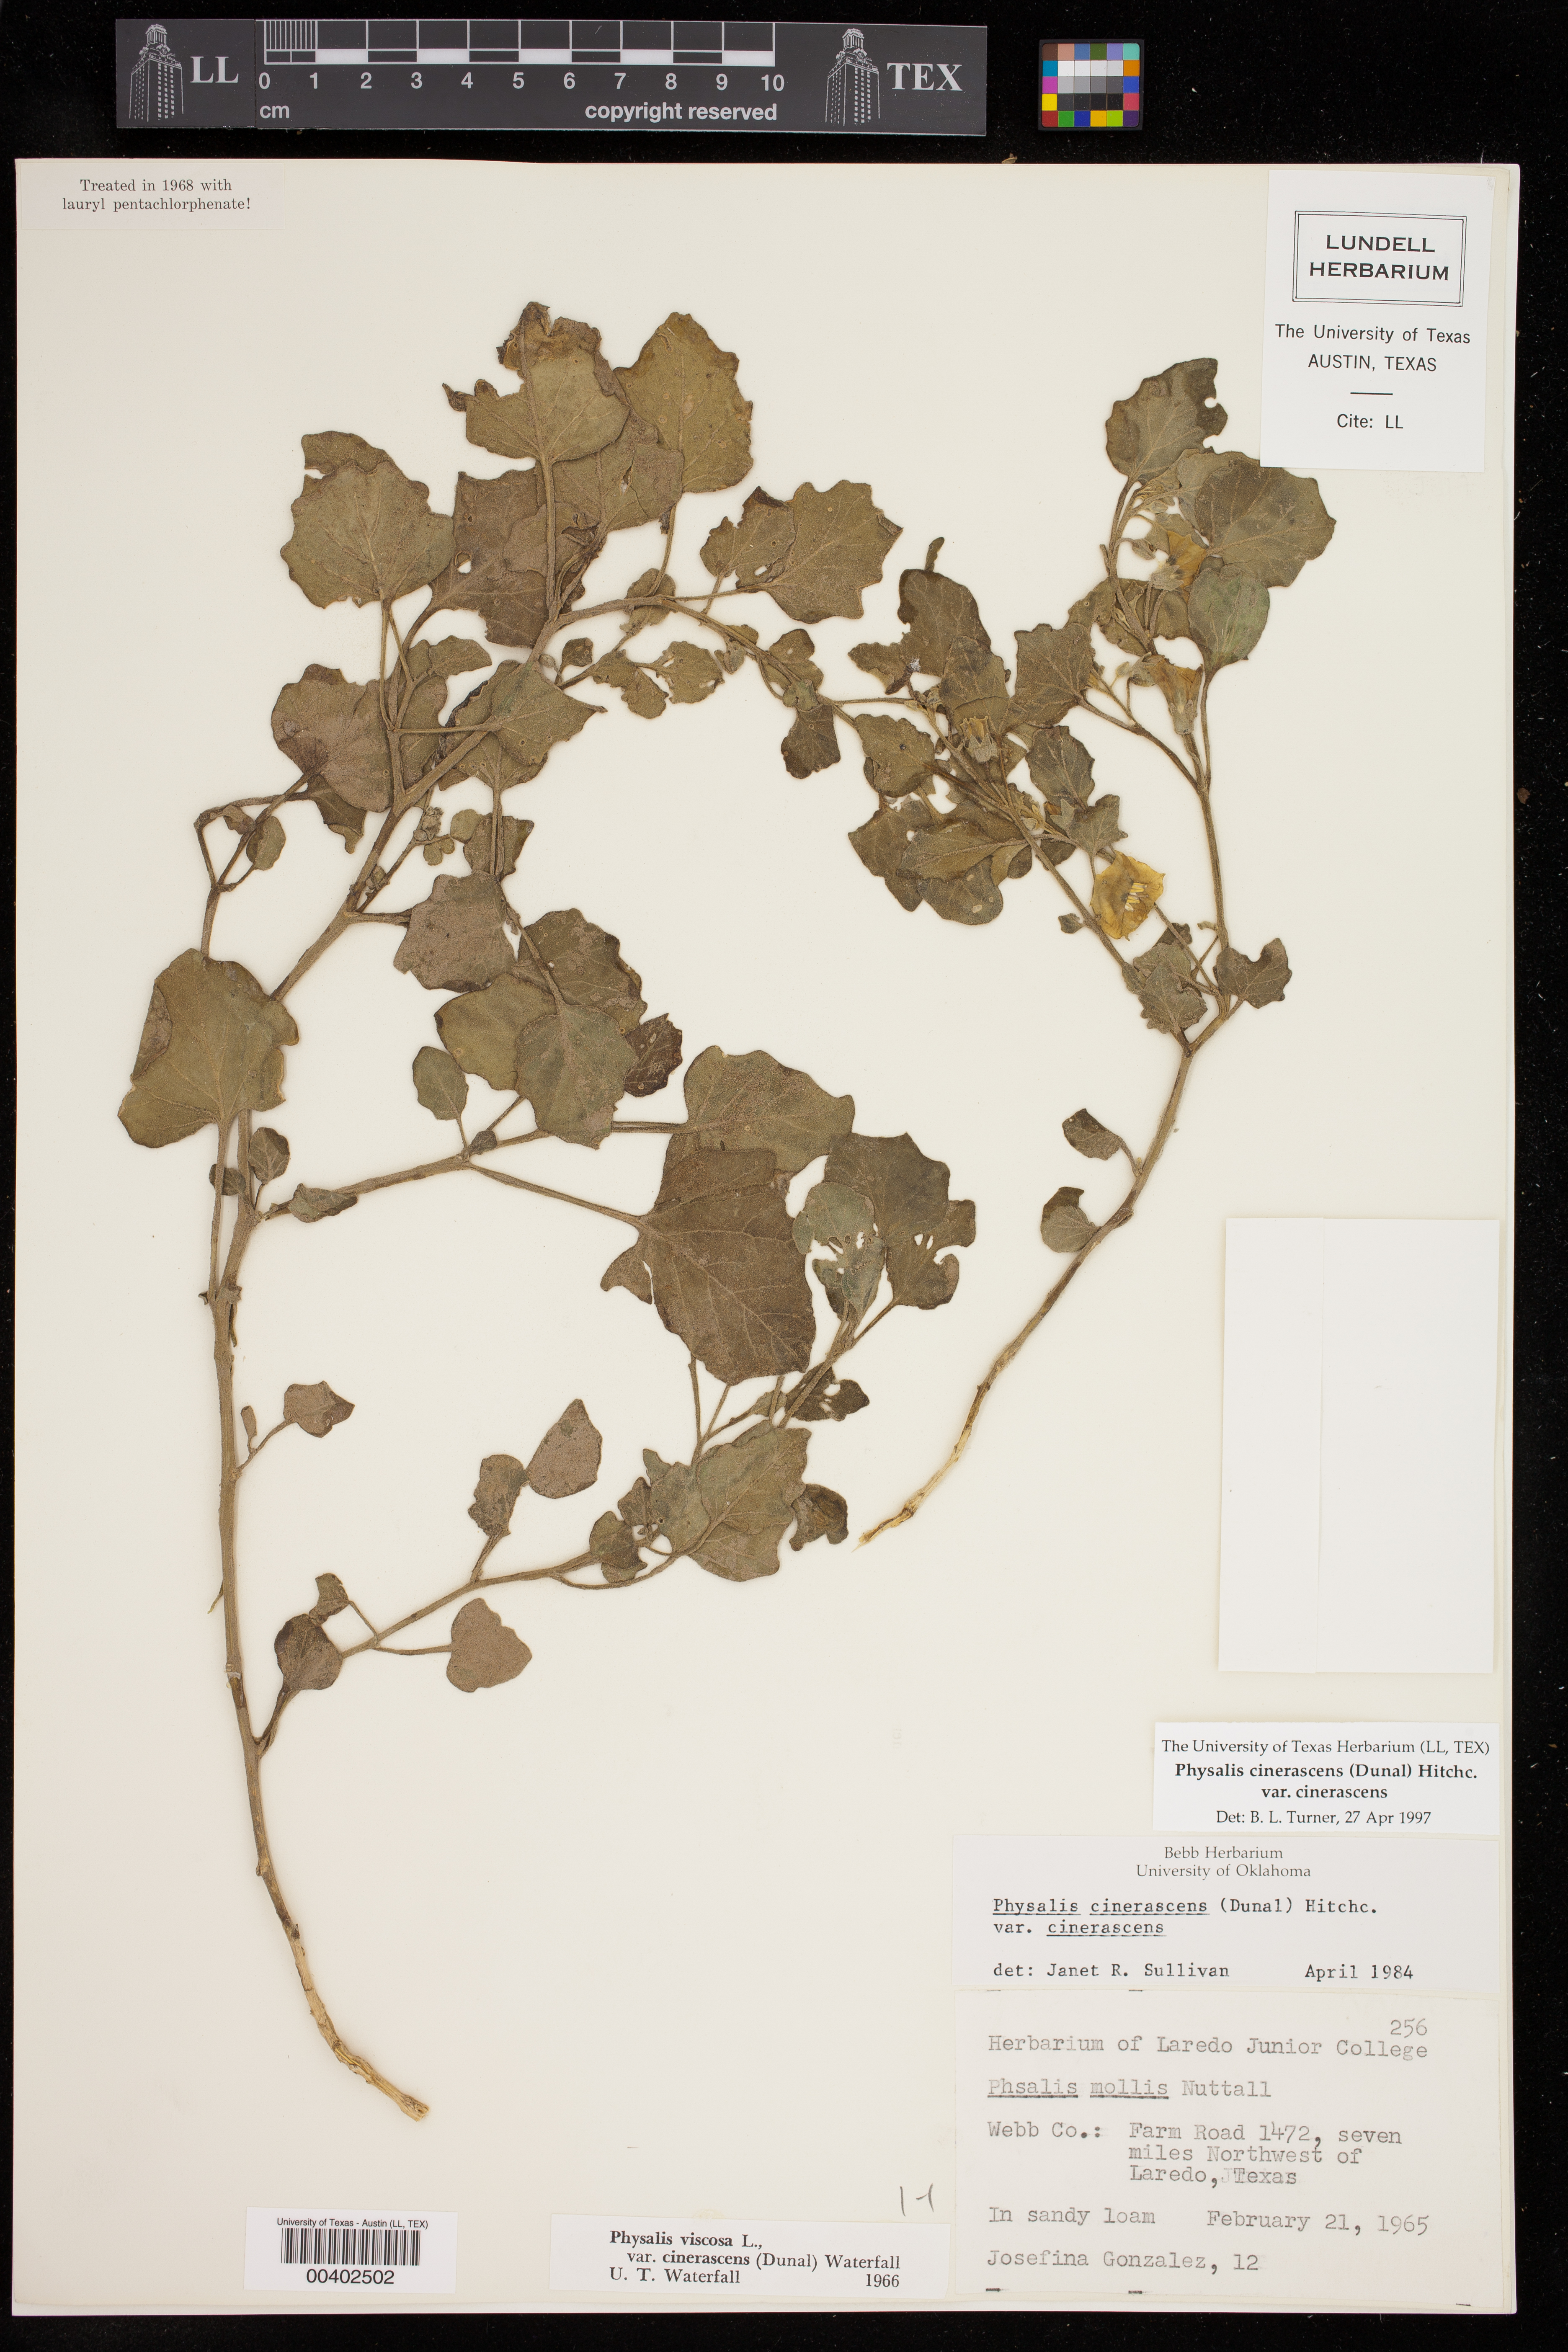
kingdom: Plantae
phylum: Tracheophyta
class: Magnoliopsida
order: Solanales
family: Solanaceae
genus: Physalis
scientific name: Physalis cinerascens
